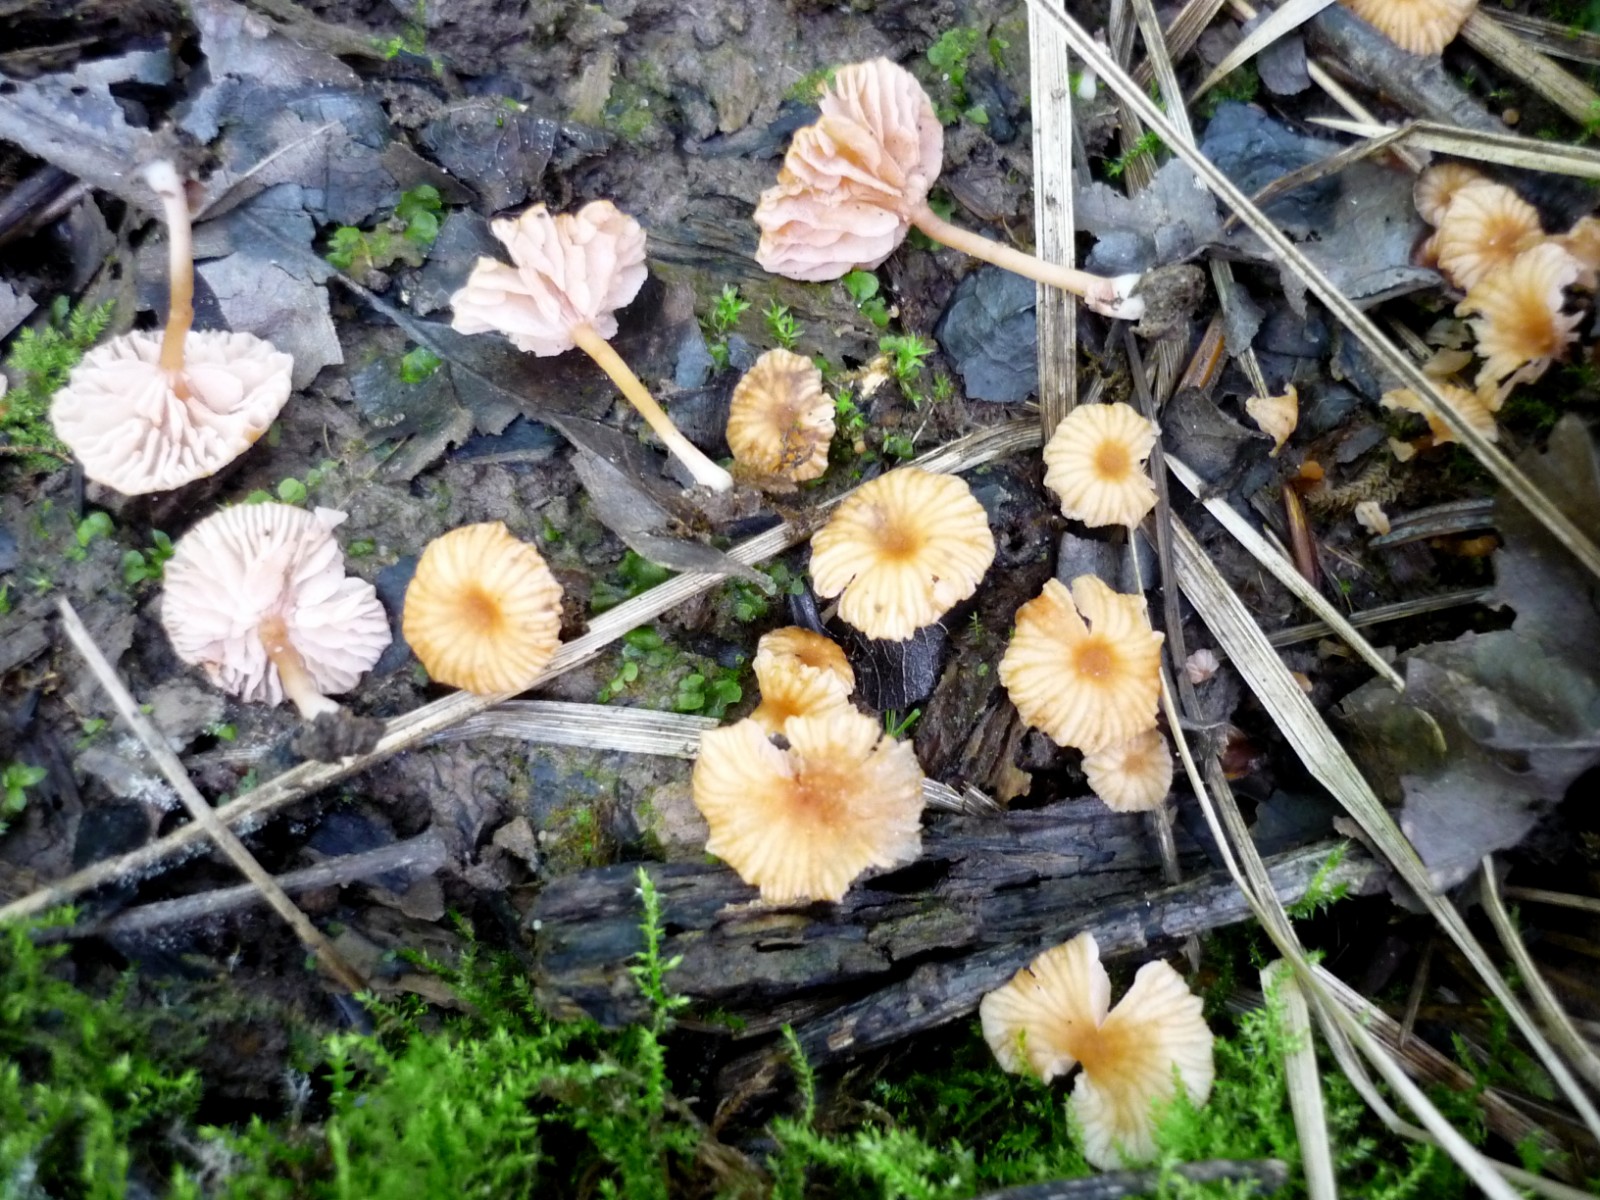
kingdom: Fungi
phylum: Basidiomycota
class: Agaricomycetes
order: Agaricales
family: Hydnangiaceae
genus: Laccaria
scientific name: Laccaria tortilis
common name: krybende ametysthat
